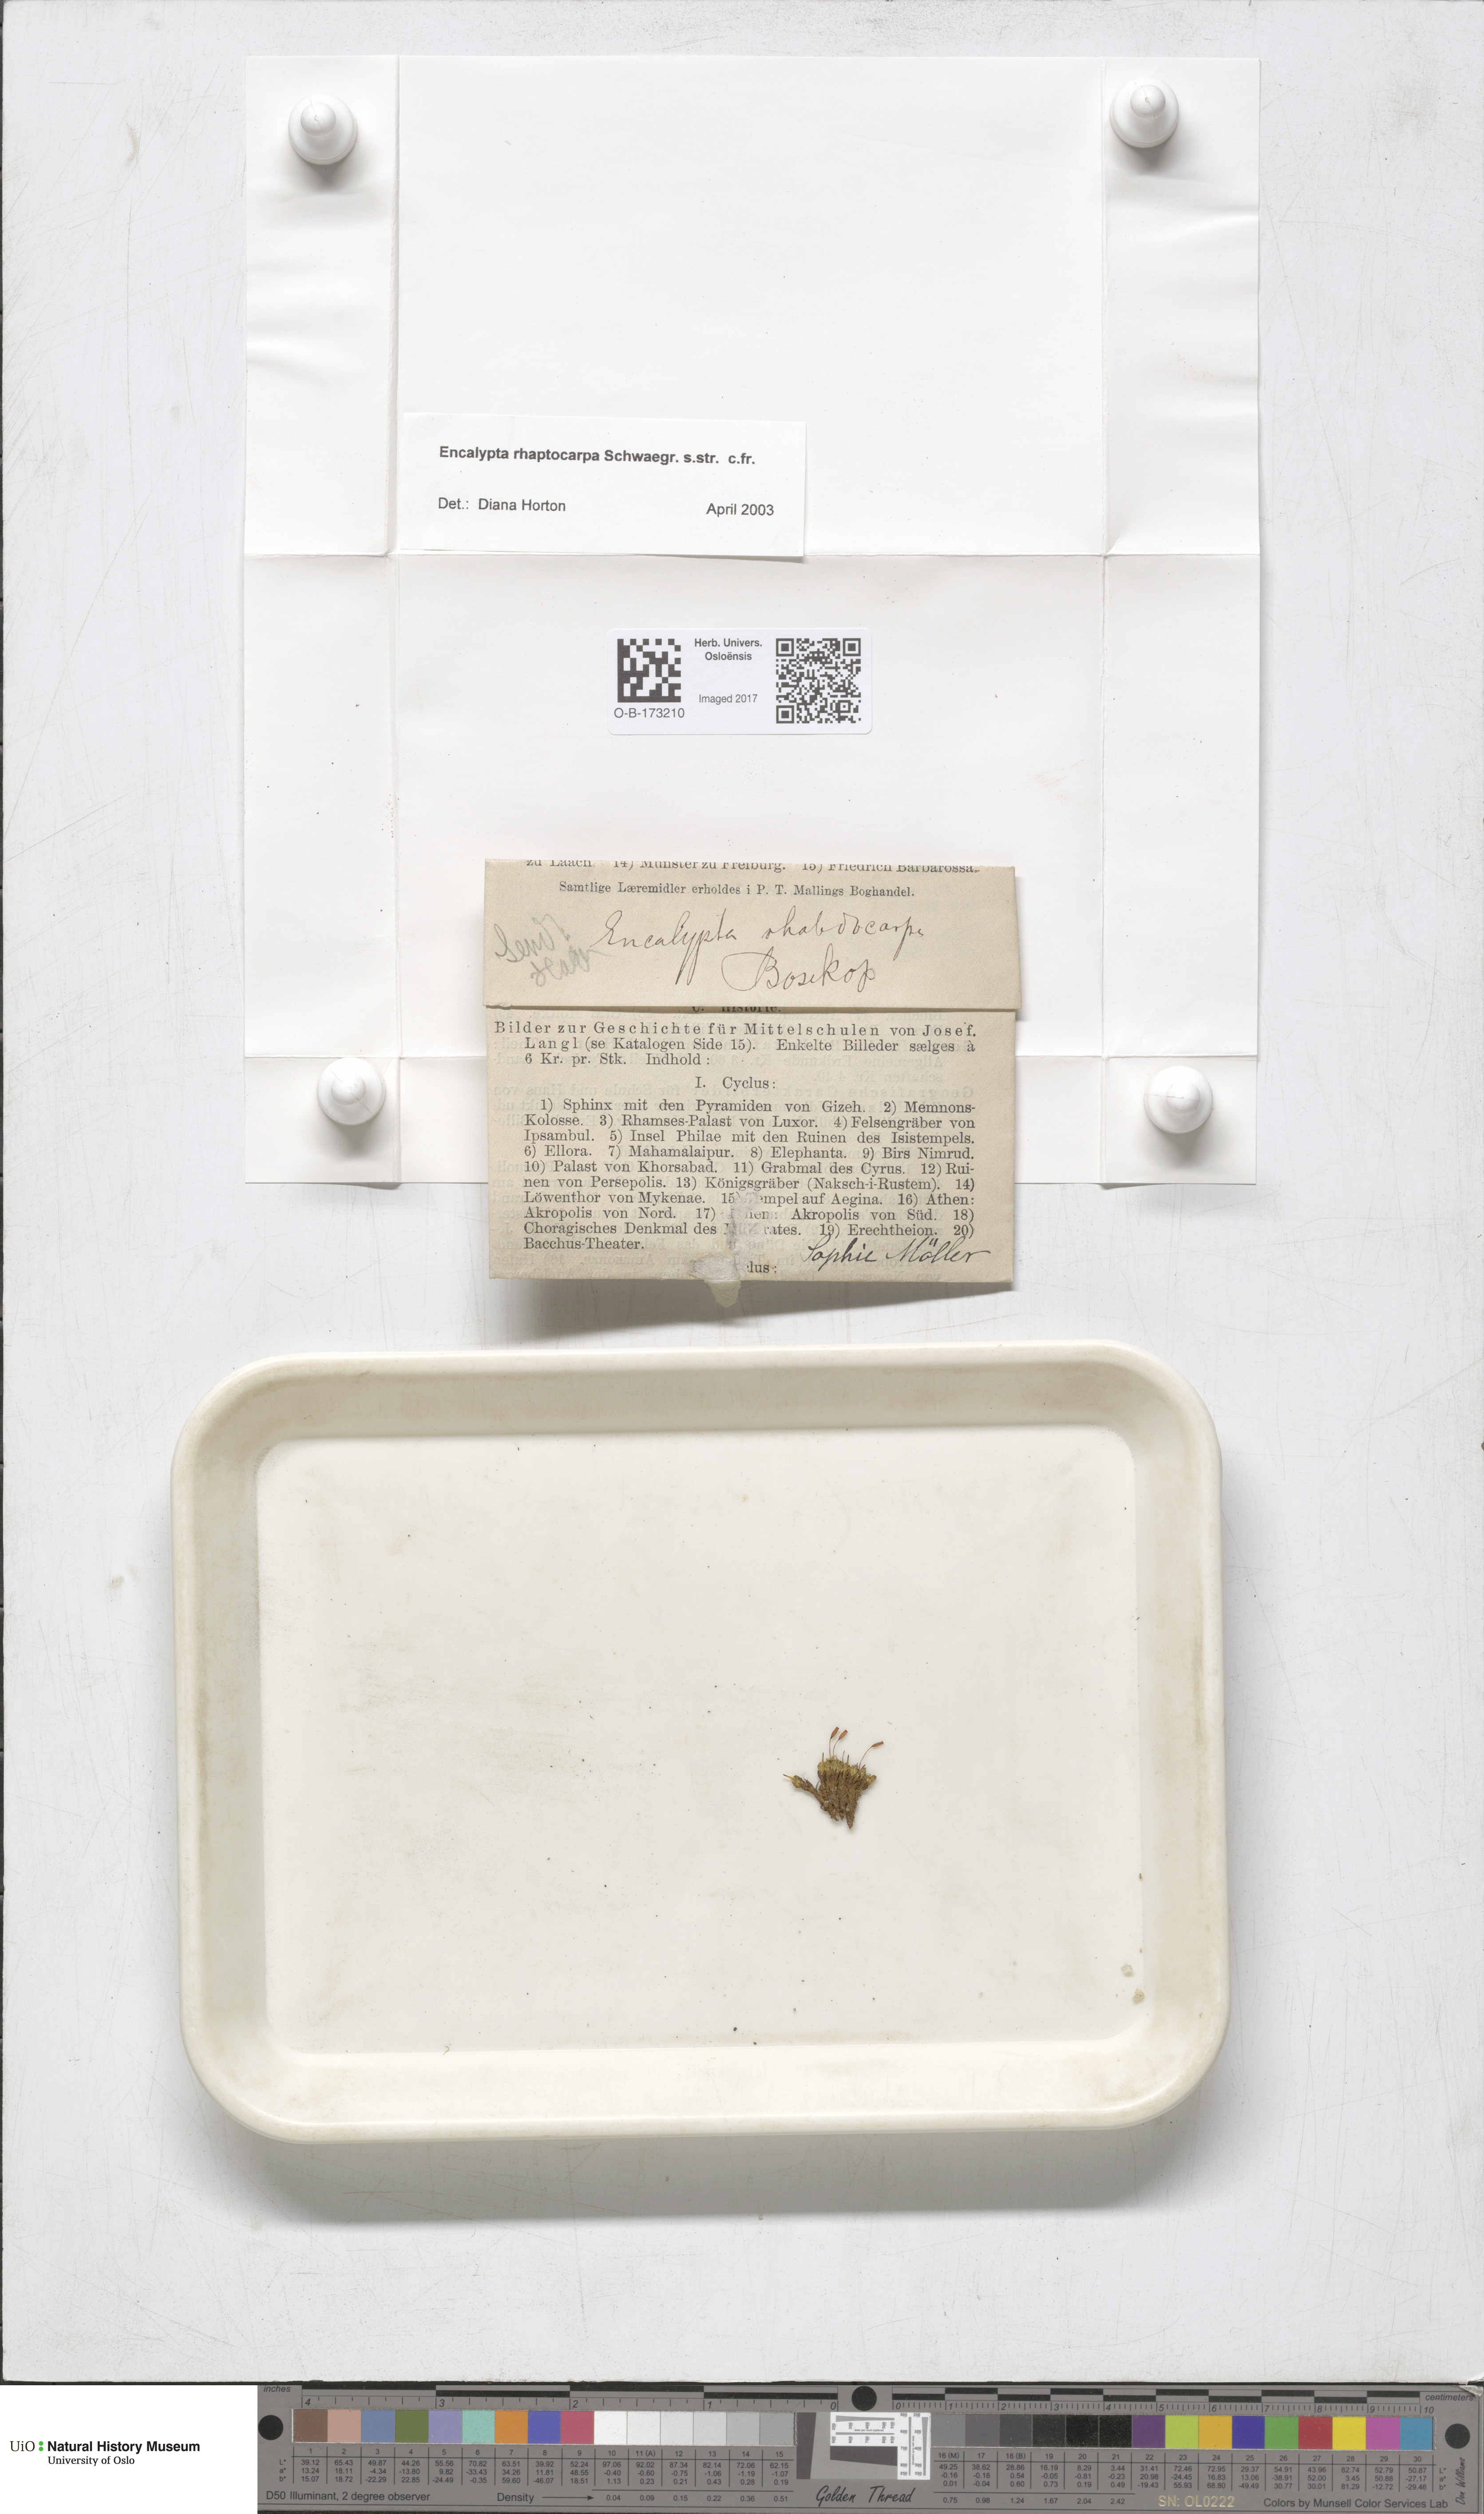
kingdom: Plantae
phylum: Bryophyta
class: Bryopsida
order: Encalyptales
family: Encalyptaceae
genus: Encalypta
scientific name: Encalypta rhaptocarpa
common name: Ribbed extinguisher moss
